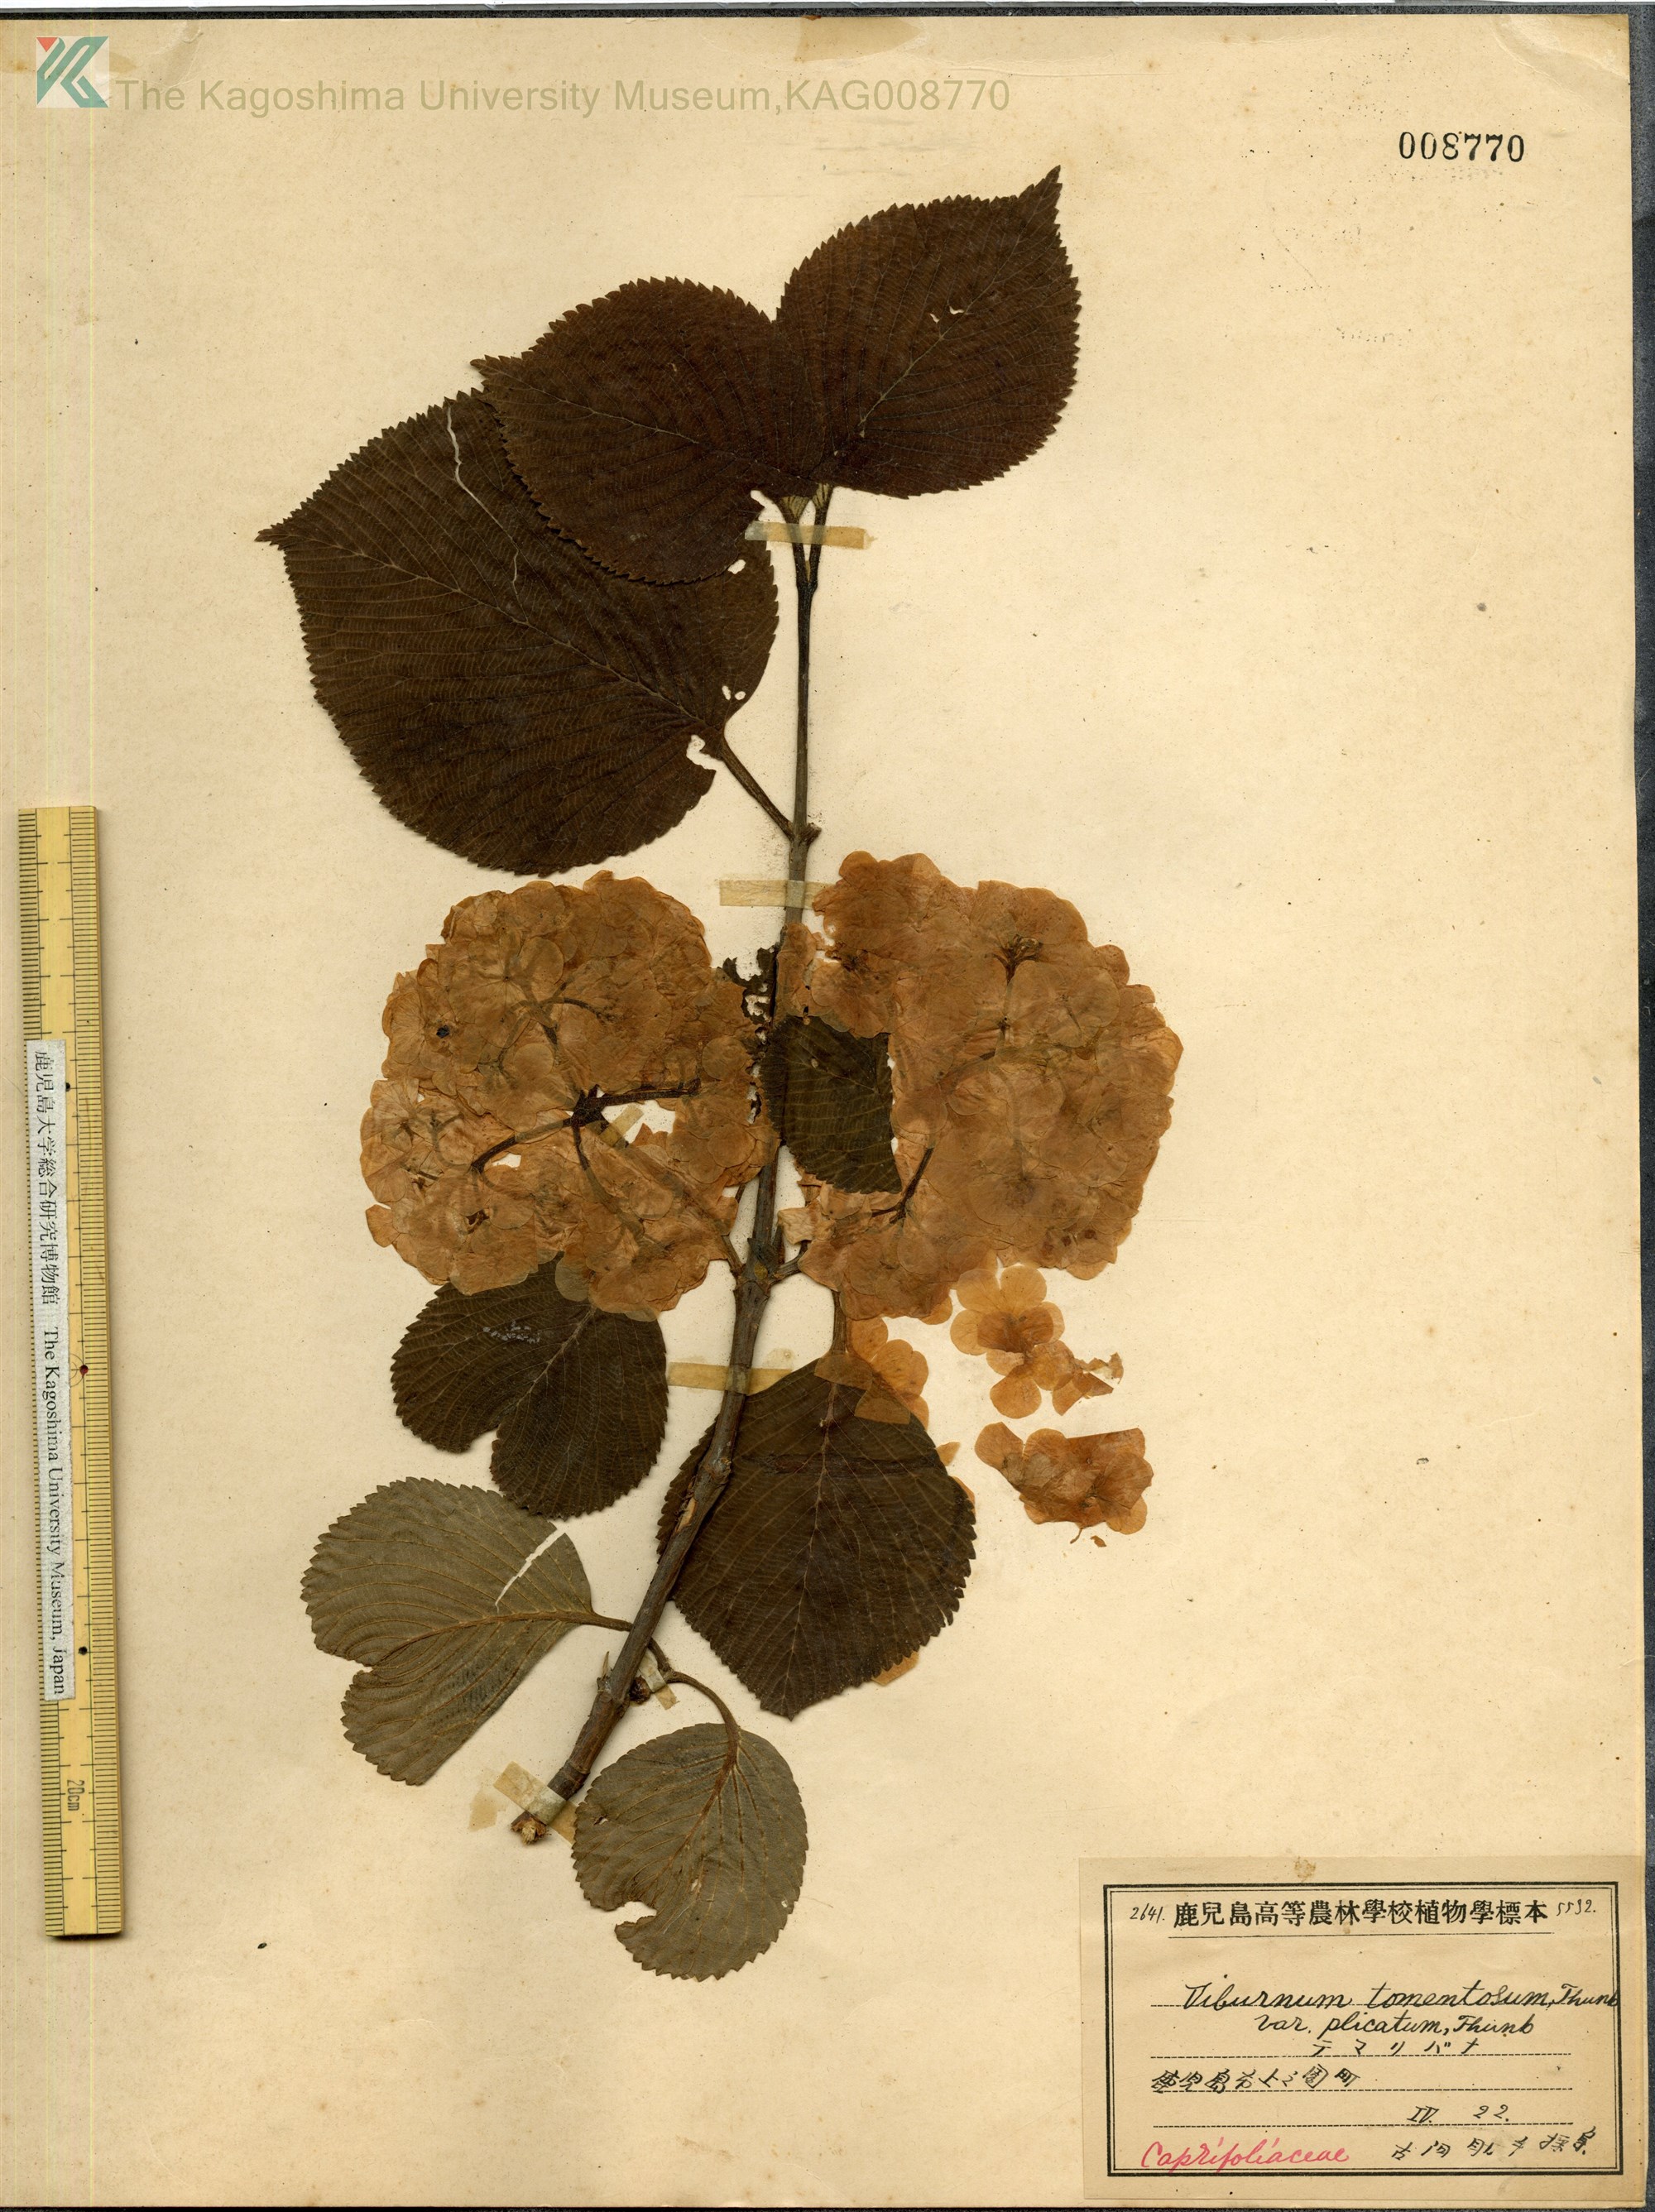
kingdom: Plantae
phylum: Tracheophyta
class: Magnoliopsida
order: Dipsacales
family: Viburnaceae
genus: Viburnum
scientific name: Viburnum plicatum
